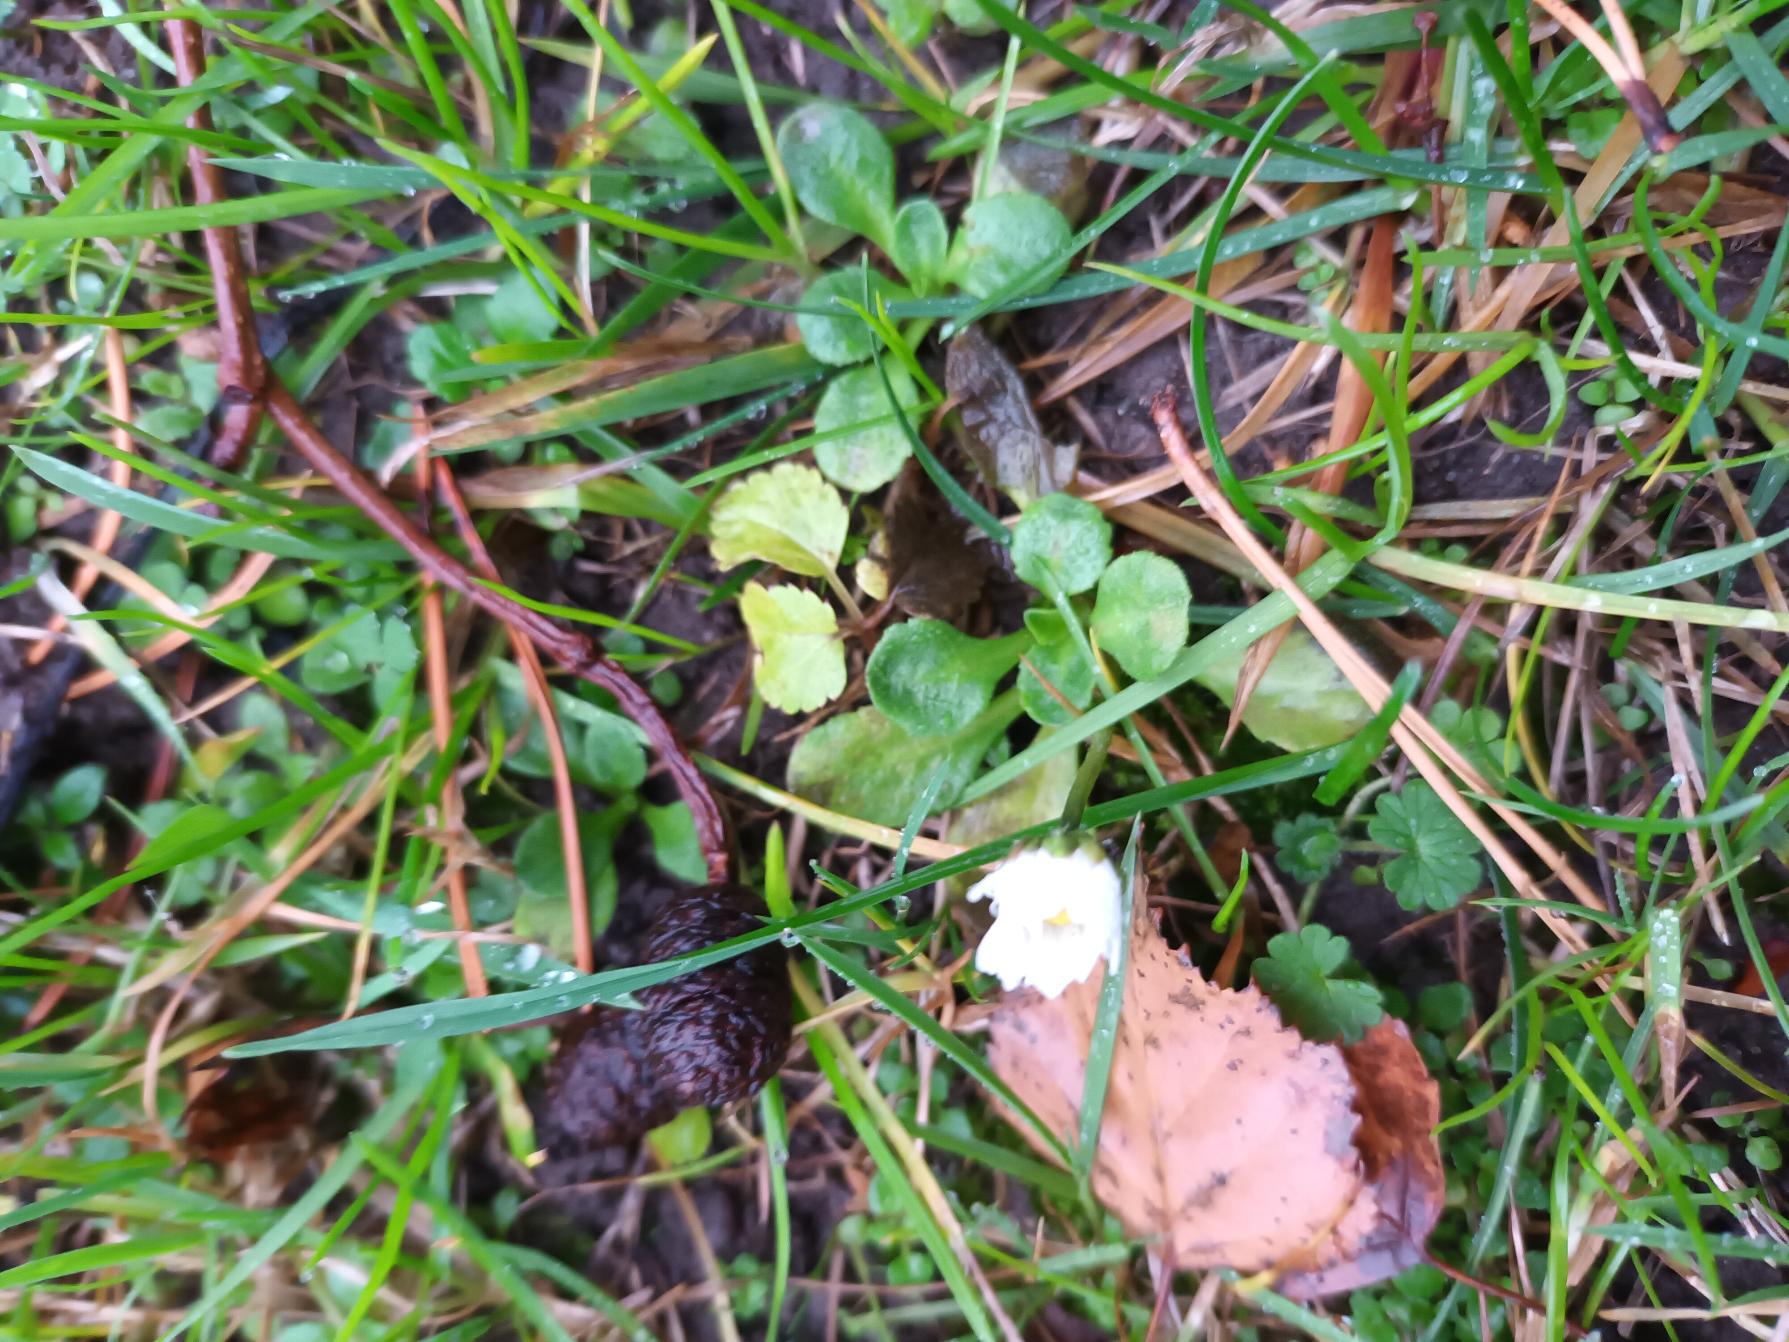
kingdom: Plantae
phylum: Tracheophyta
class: Magnoliopsida
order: Asterales
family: Asteraceae
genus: Bellis
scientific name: Bellis perennis
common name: Tusindfryd
